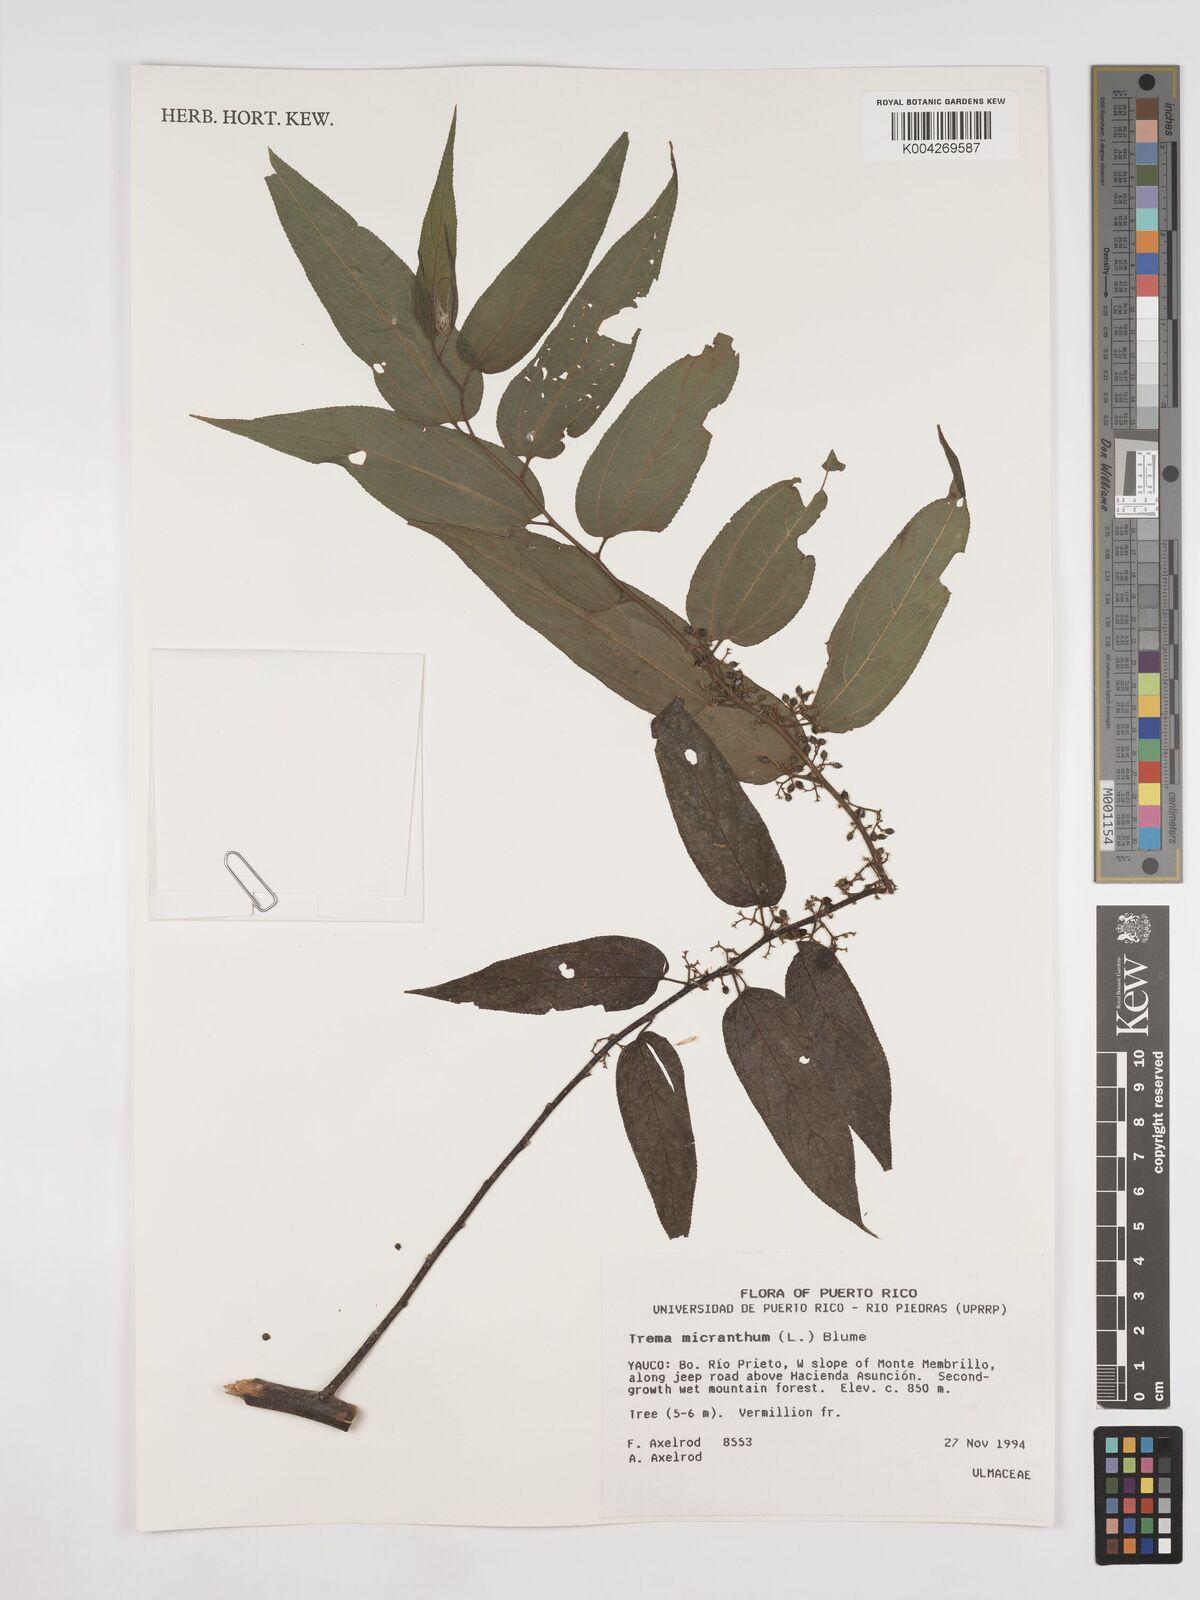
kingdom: Plantae
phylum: Tracheophyta
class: Magnoliopsida
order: Rosales
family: Cannabaceae
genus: Trema
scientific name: Trema micranthum
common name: Jamaican nettletree
